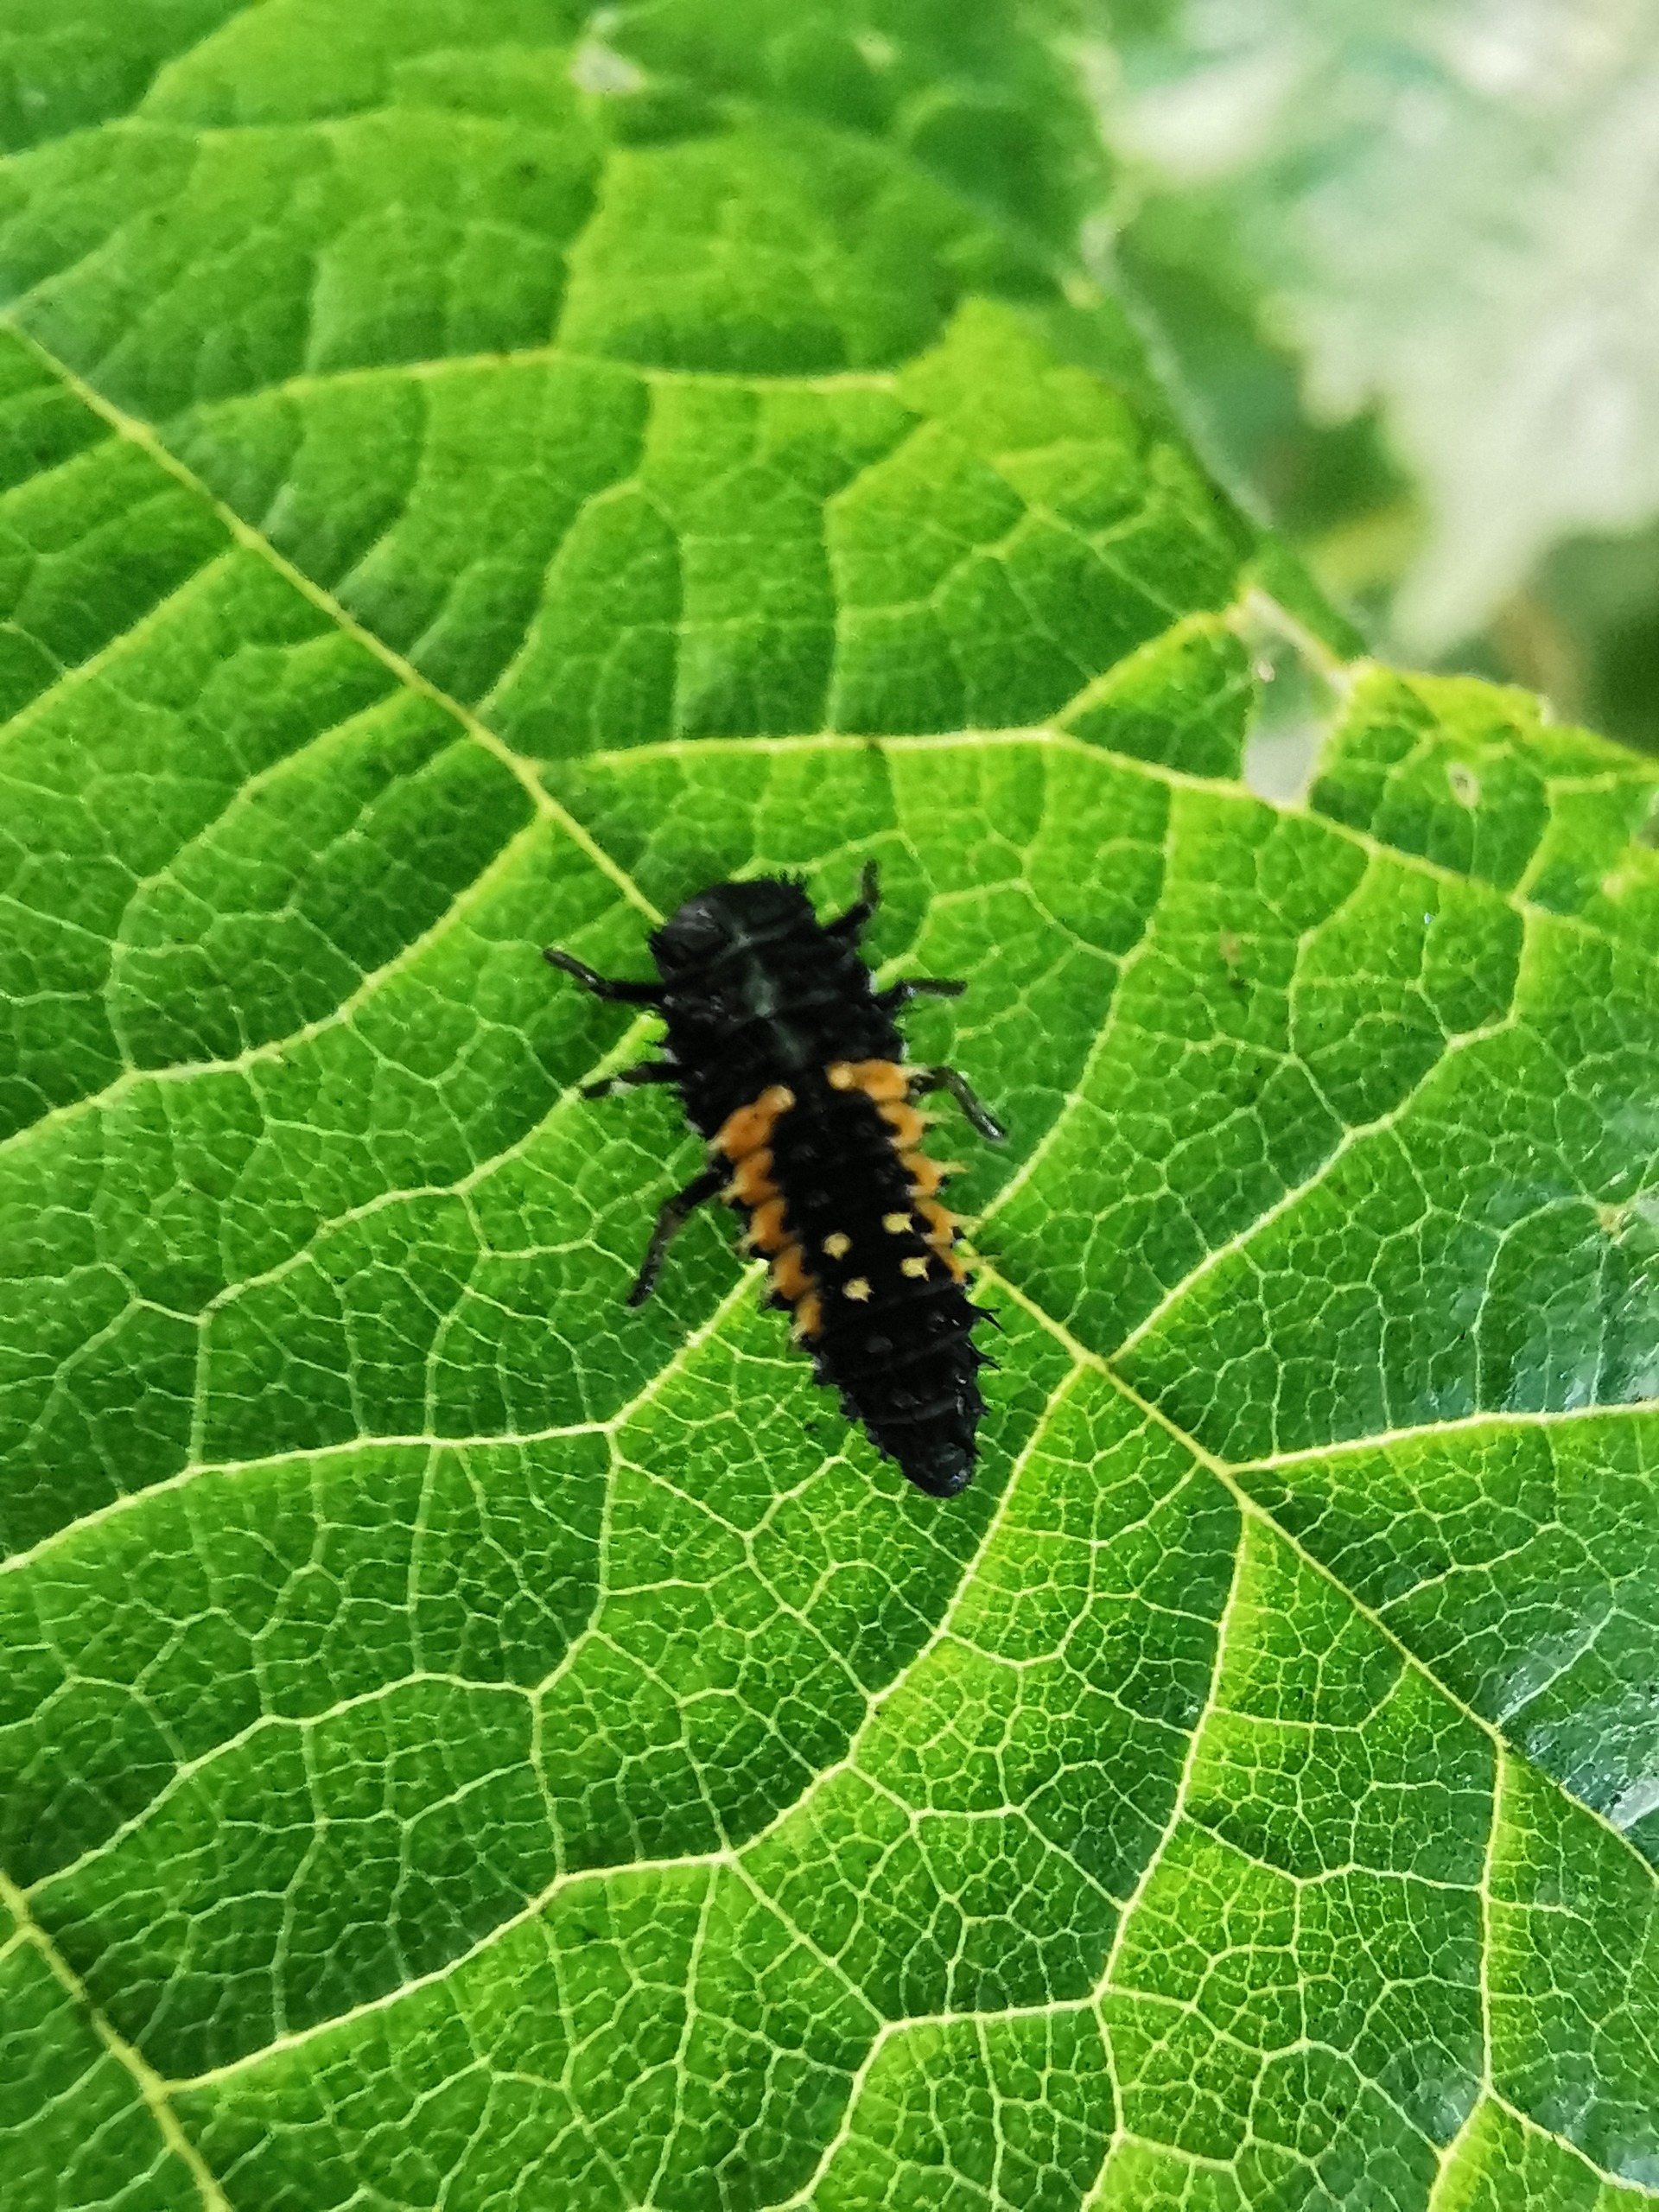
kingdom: Animalia
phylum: Arthropoda
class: Insecta
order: Coleoptera
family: Coccinellidae
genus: Harmonia
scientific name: Harmonia axyridis
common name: Harlekinmariehøne
